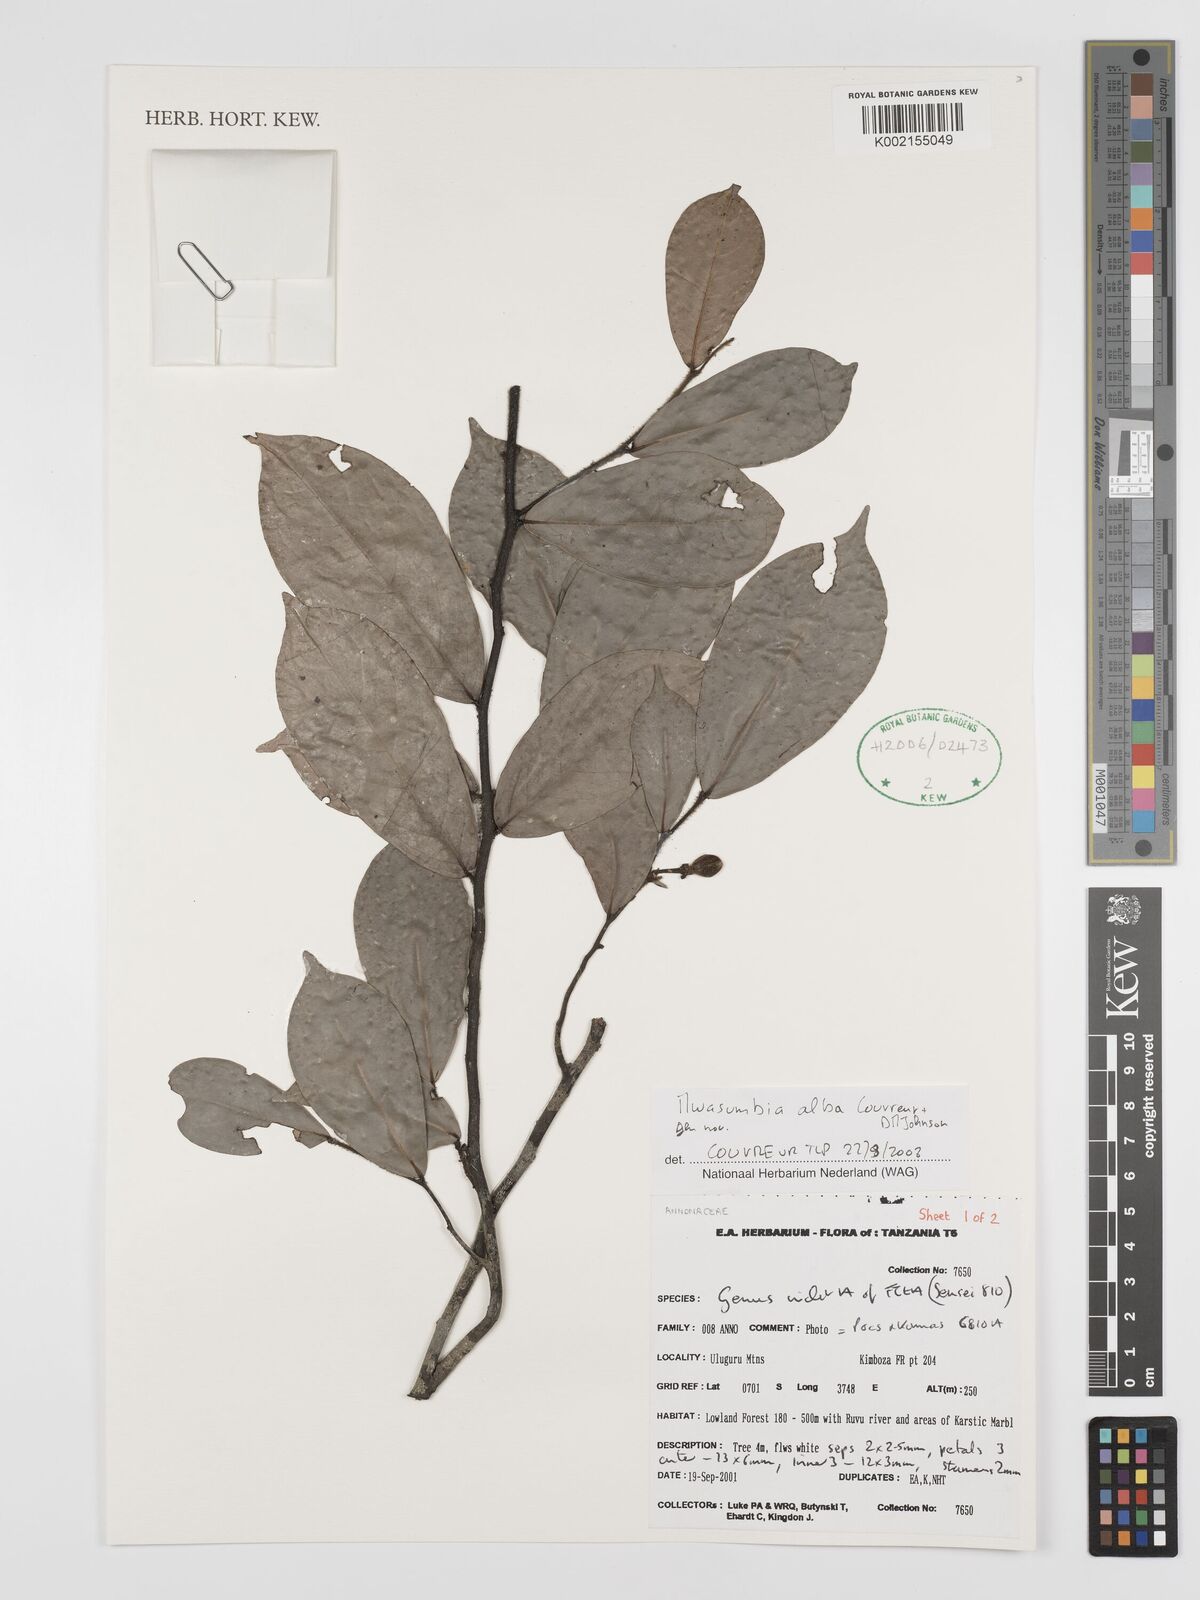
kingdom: Plantae
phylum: Tracheophyta
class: Magnoliopsida
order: Magnoliales
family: Annonaceae
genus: Mwasumbia
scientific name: Mwasumbia alba
